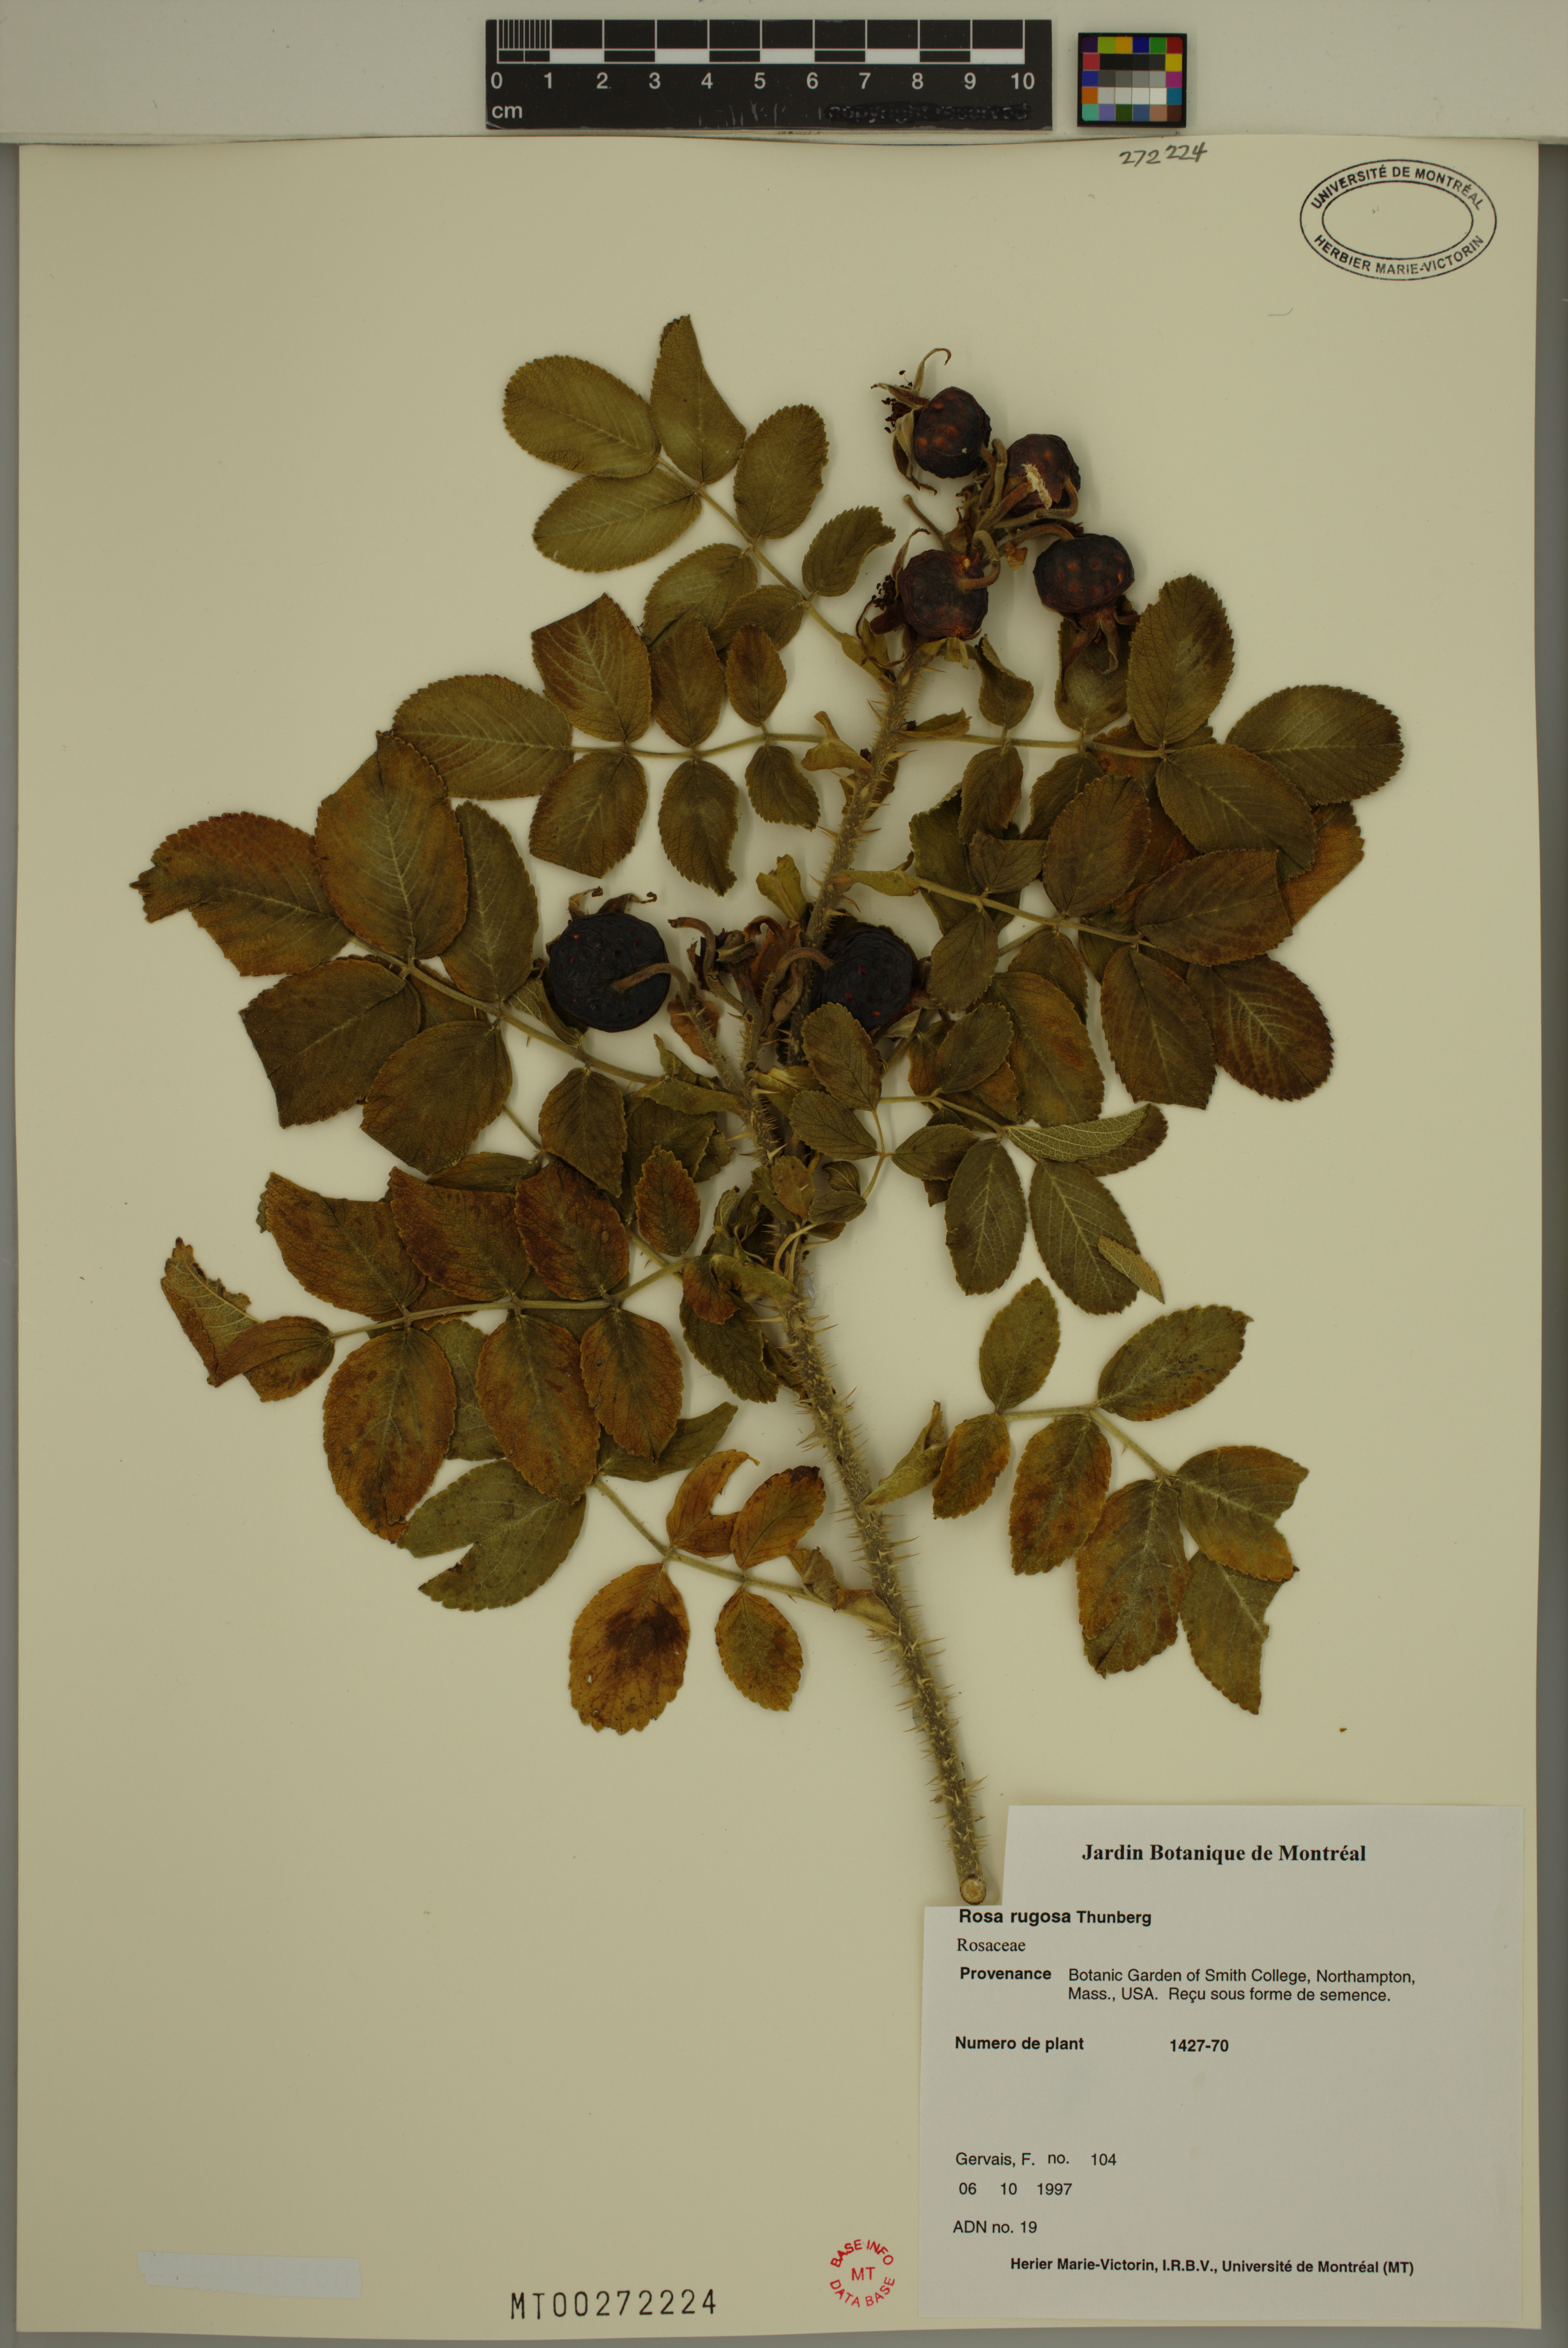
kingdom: Plantae
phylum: Tracheophyta
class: Magnoliopsida
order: Rosales
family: Rosaceae
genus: Rosa
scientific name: Rosa rugosa
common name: Japanese rose
